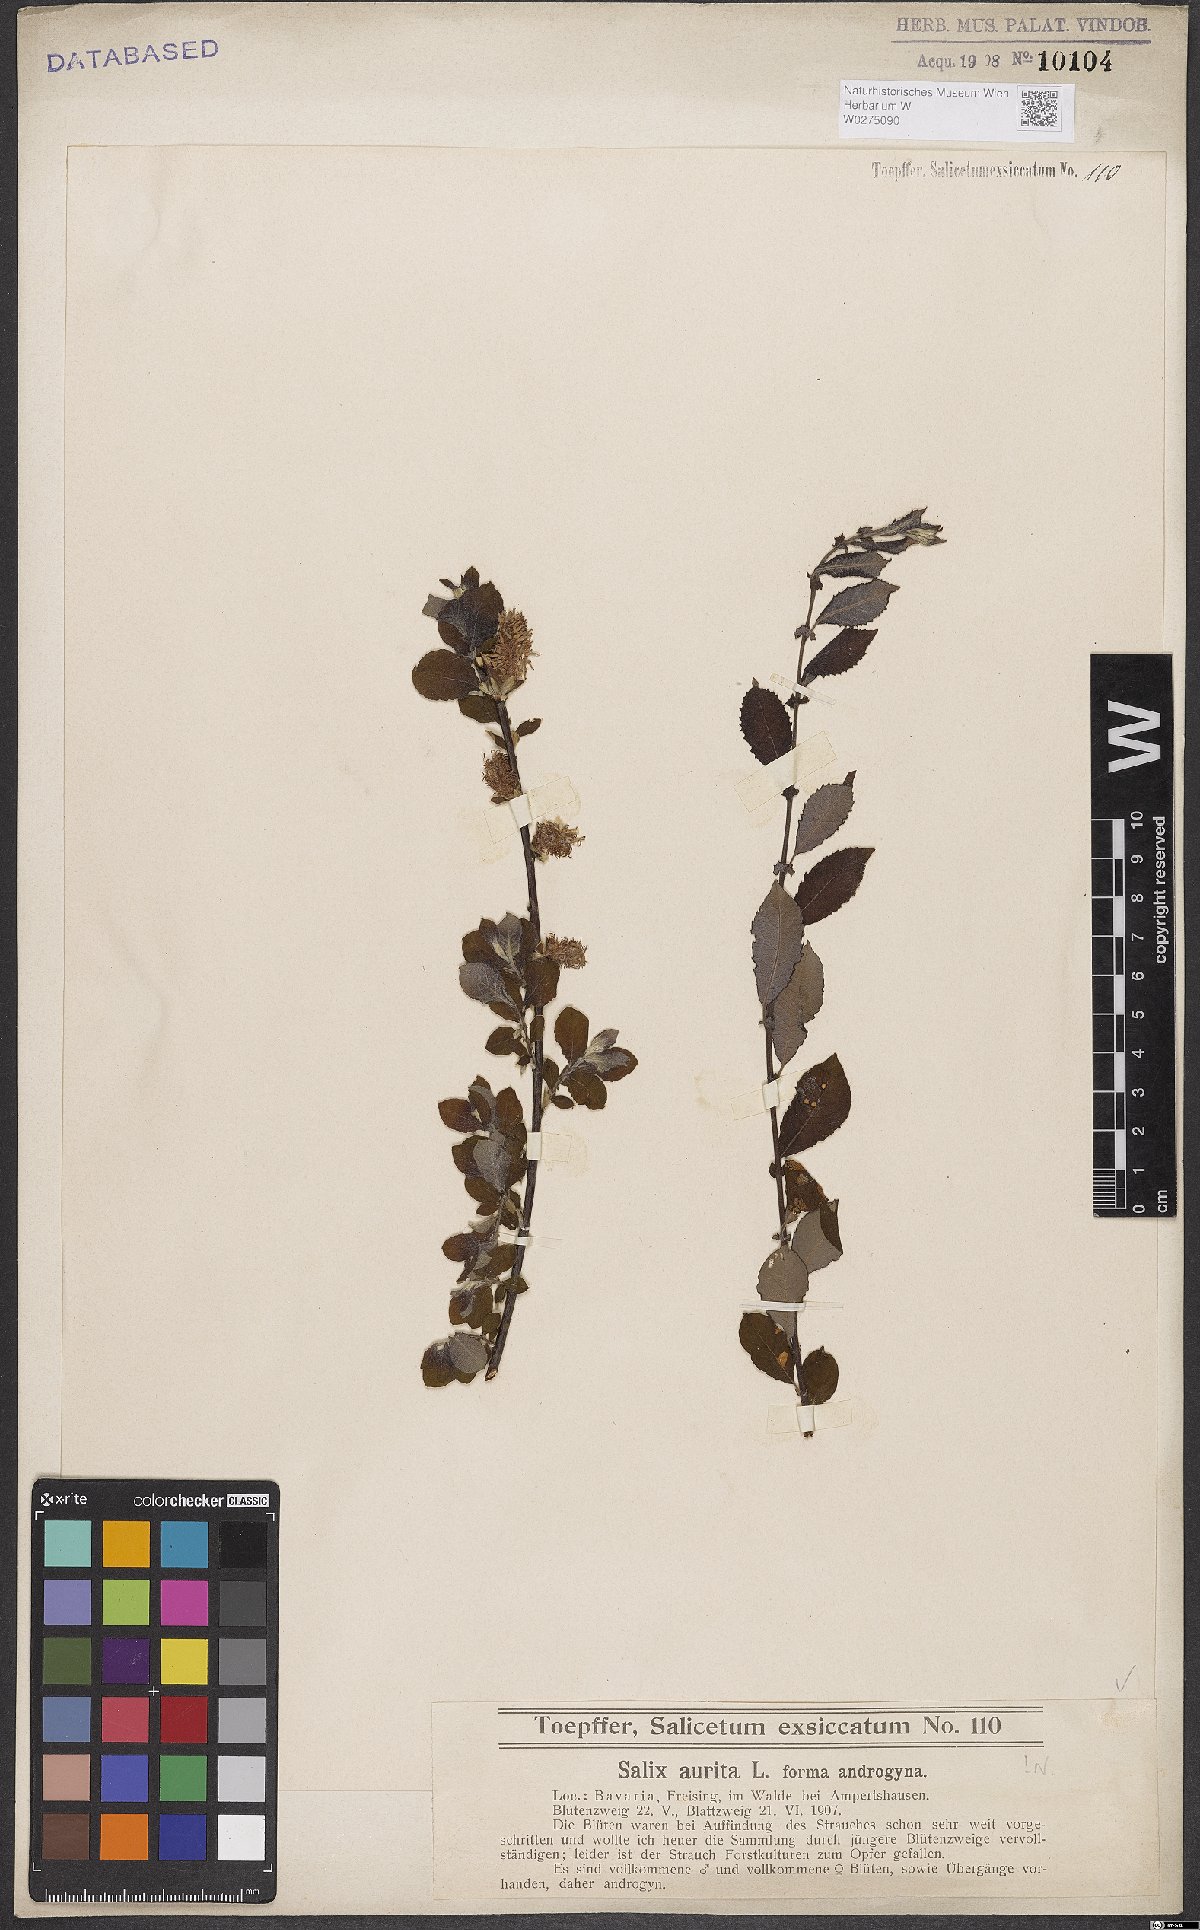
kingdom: Plantae
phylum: Tracheophyta
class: Magnoliopsida
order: Malpighiales
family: Salicaceae
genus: Salix
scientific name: Salix aurita
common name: Eared willow
